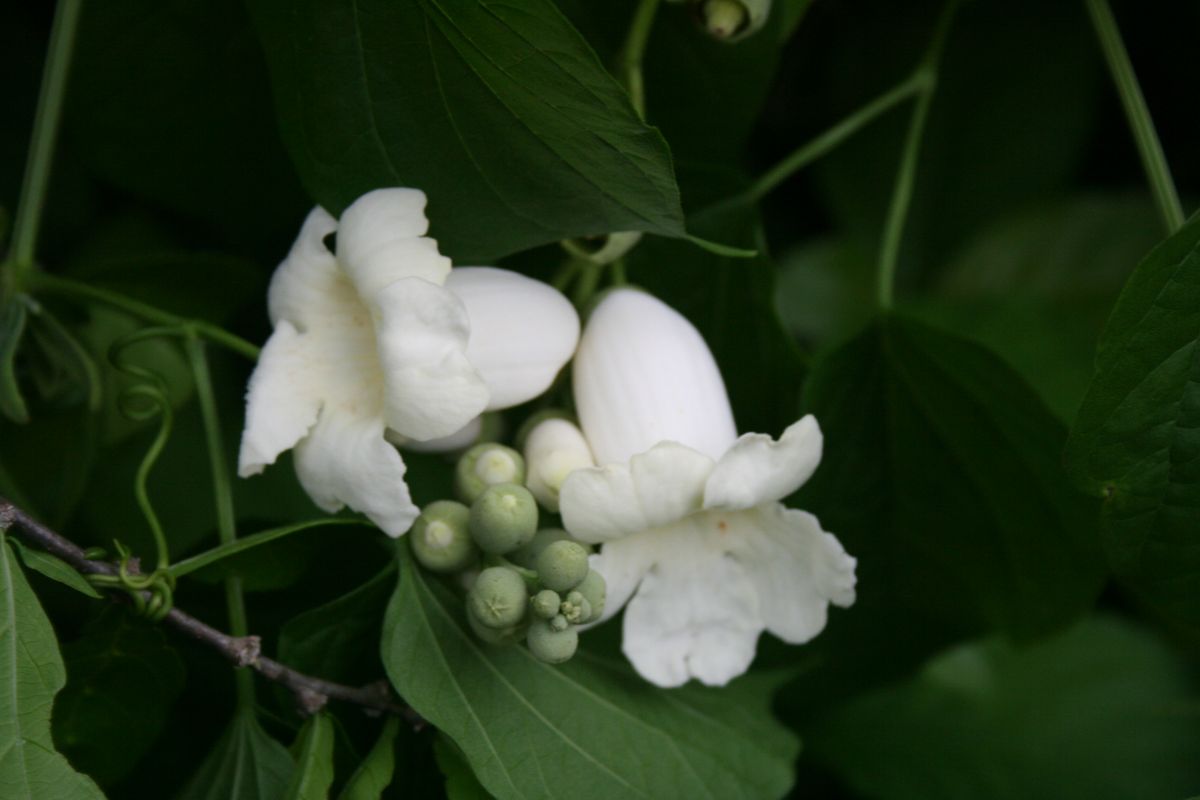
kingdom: Plantae
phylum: Tracheophyta
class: Magnoliopsida
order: Lamiales
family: Bignoniaceae
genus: Amphilophium
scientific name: Amphilophium paniculatum
